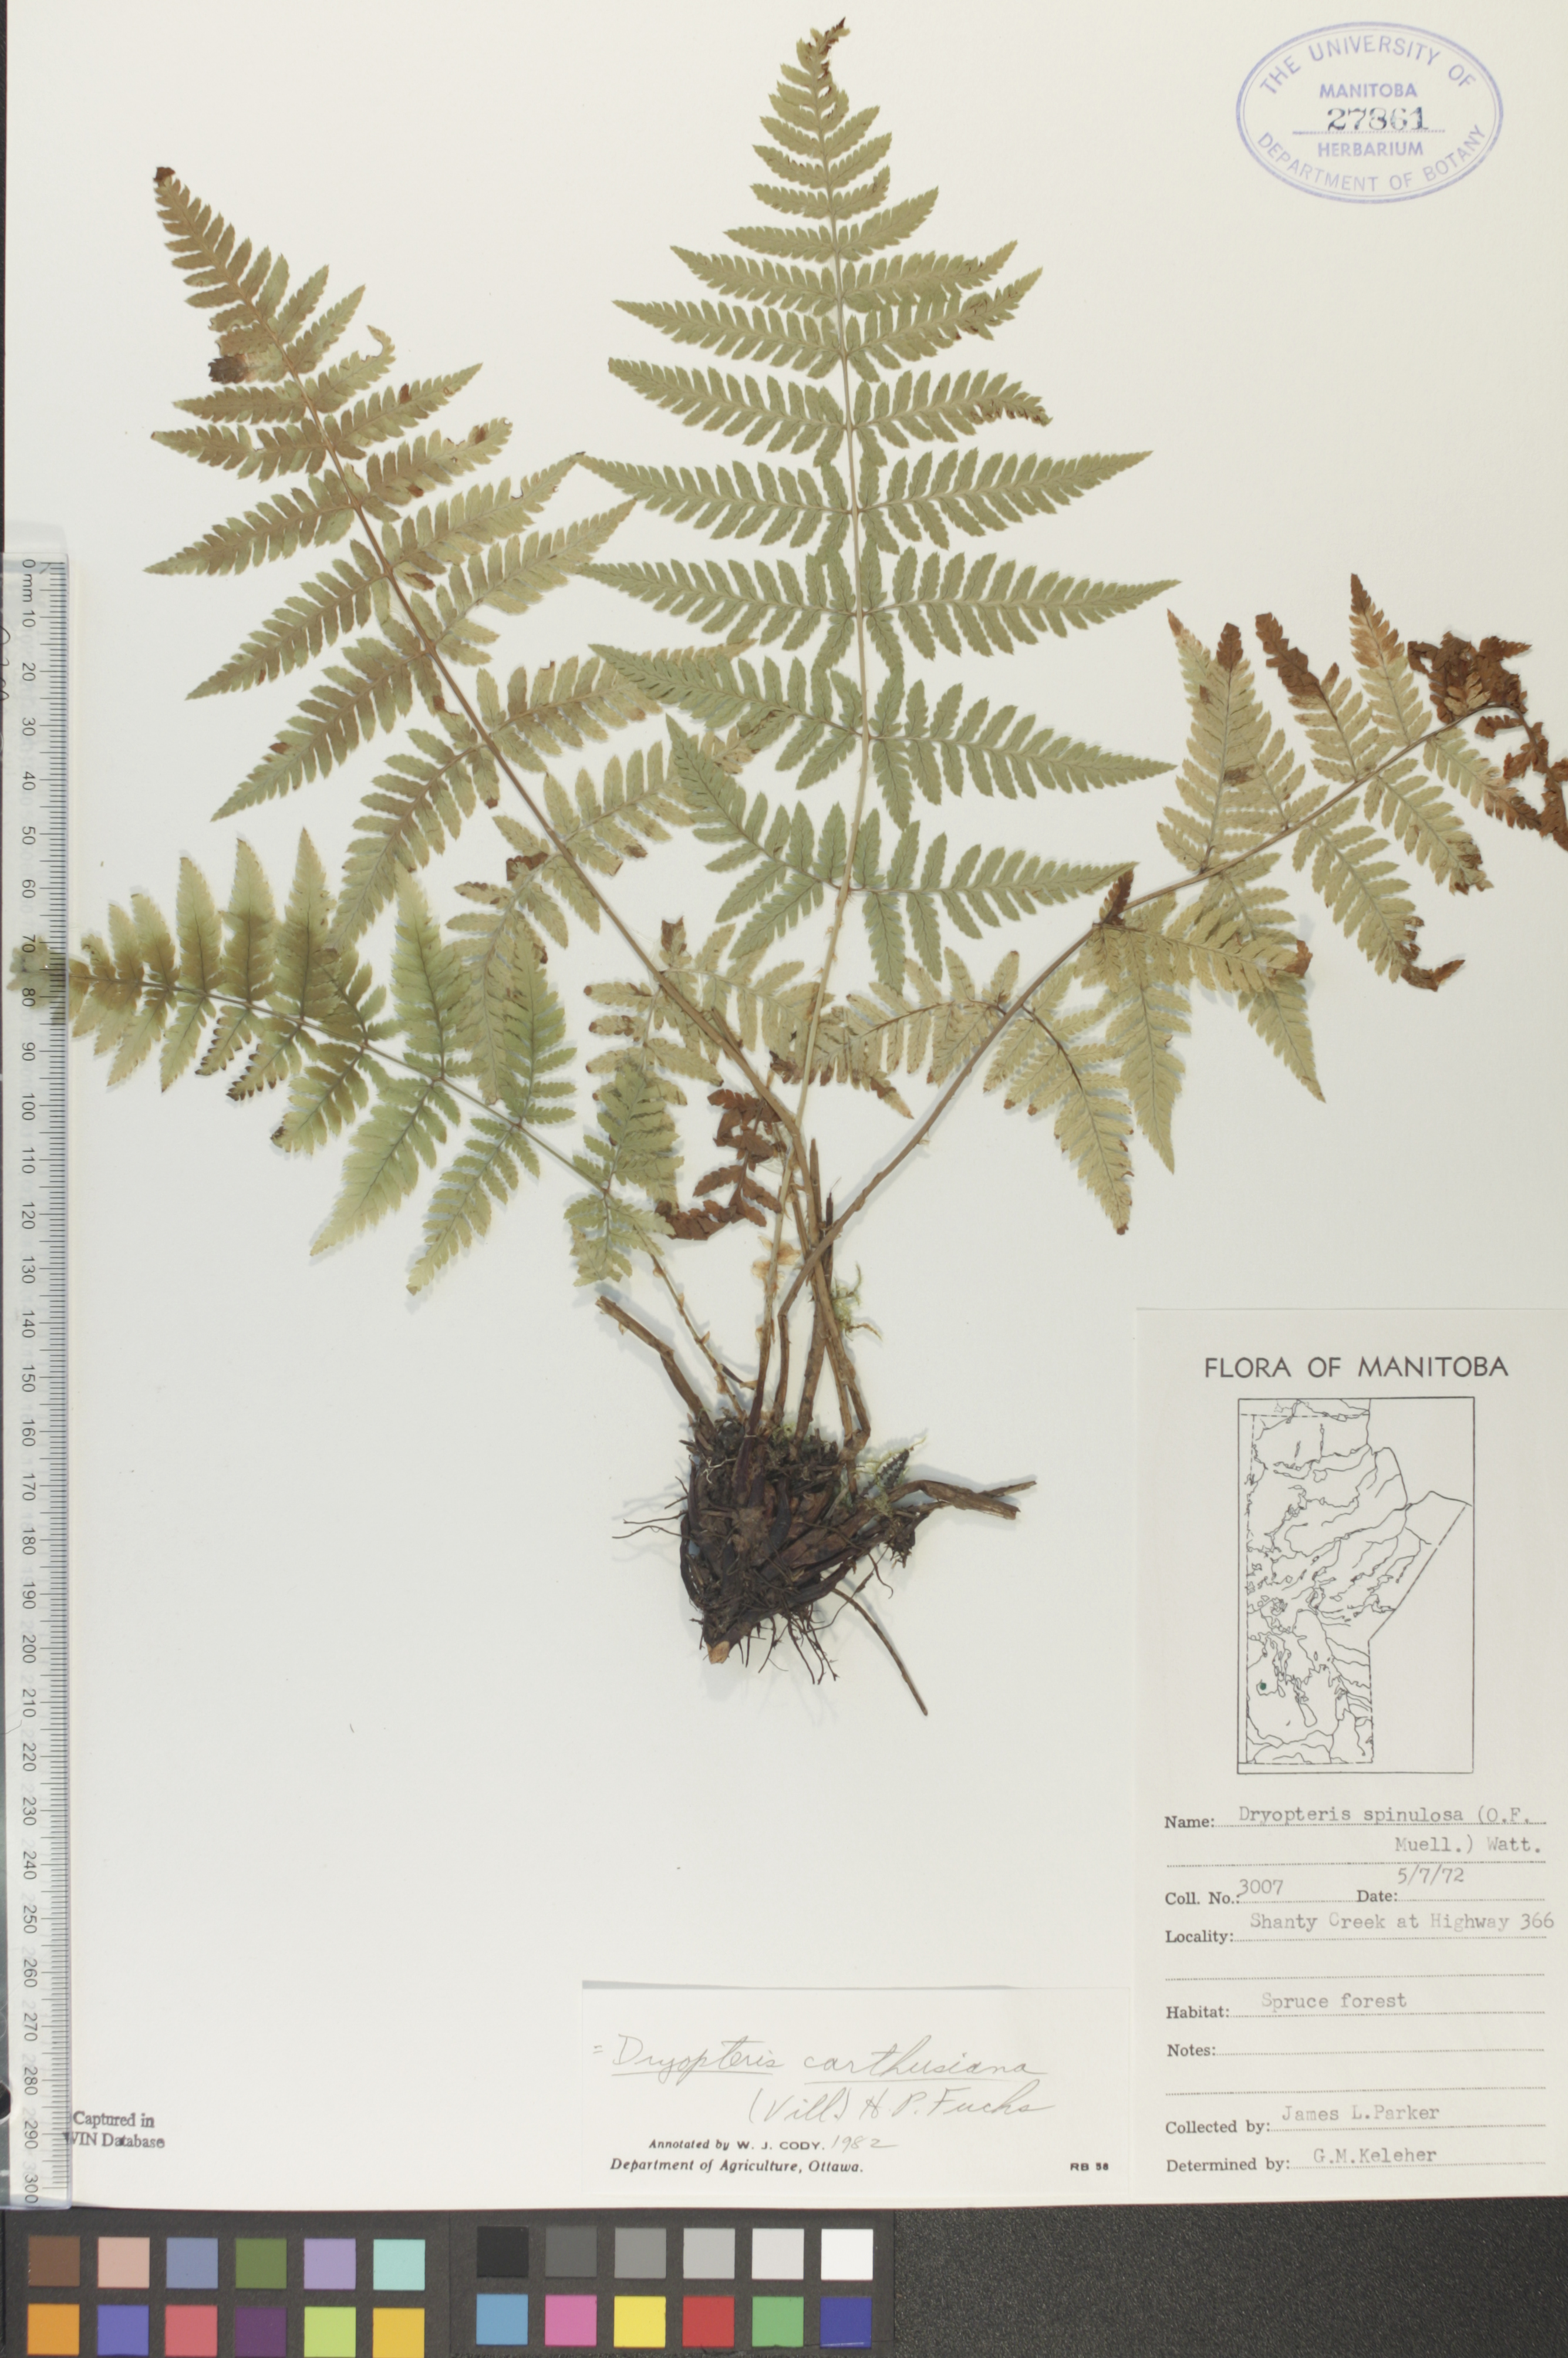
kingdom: Plantae
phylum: Tracheophyta
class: Polypodiopsida
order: Polypodiales
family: Dryopteridaceae
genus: Dryopteris
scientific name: Dryopteris carthusiana
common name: Narrow buckler-fern
